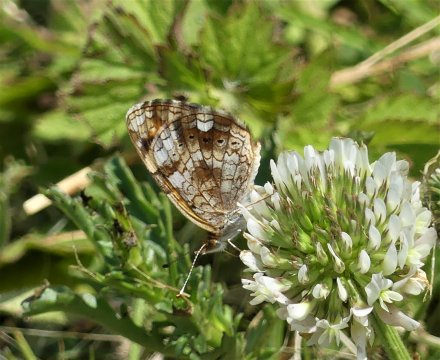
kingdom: Animalia
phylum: Arthropoda
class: Insecta
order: Lepidoptera
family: Nymphalidae
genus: Phyciodes
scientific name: Phyciodes tharos
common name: Pearl Crescent
